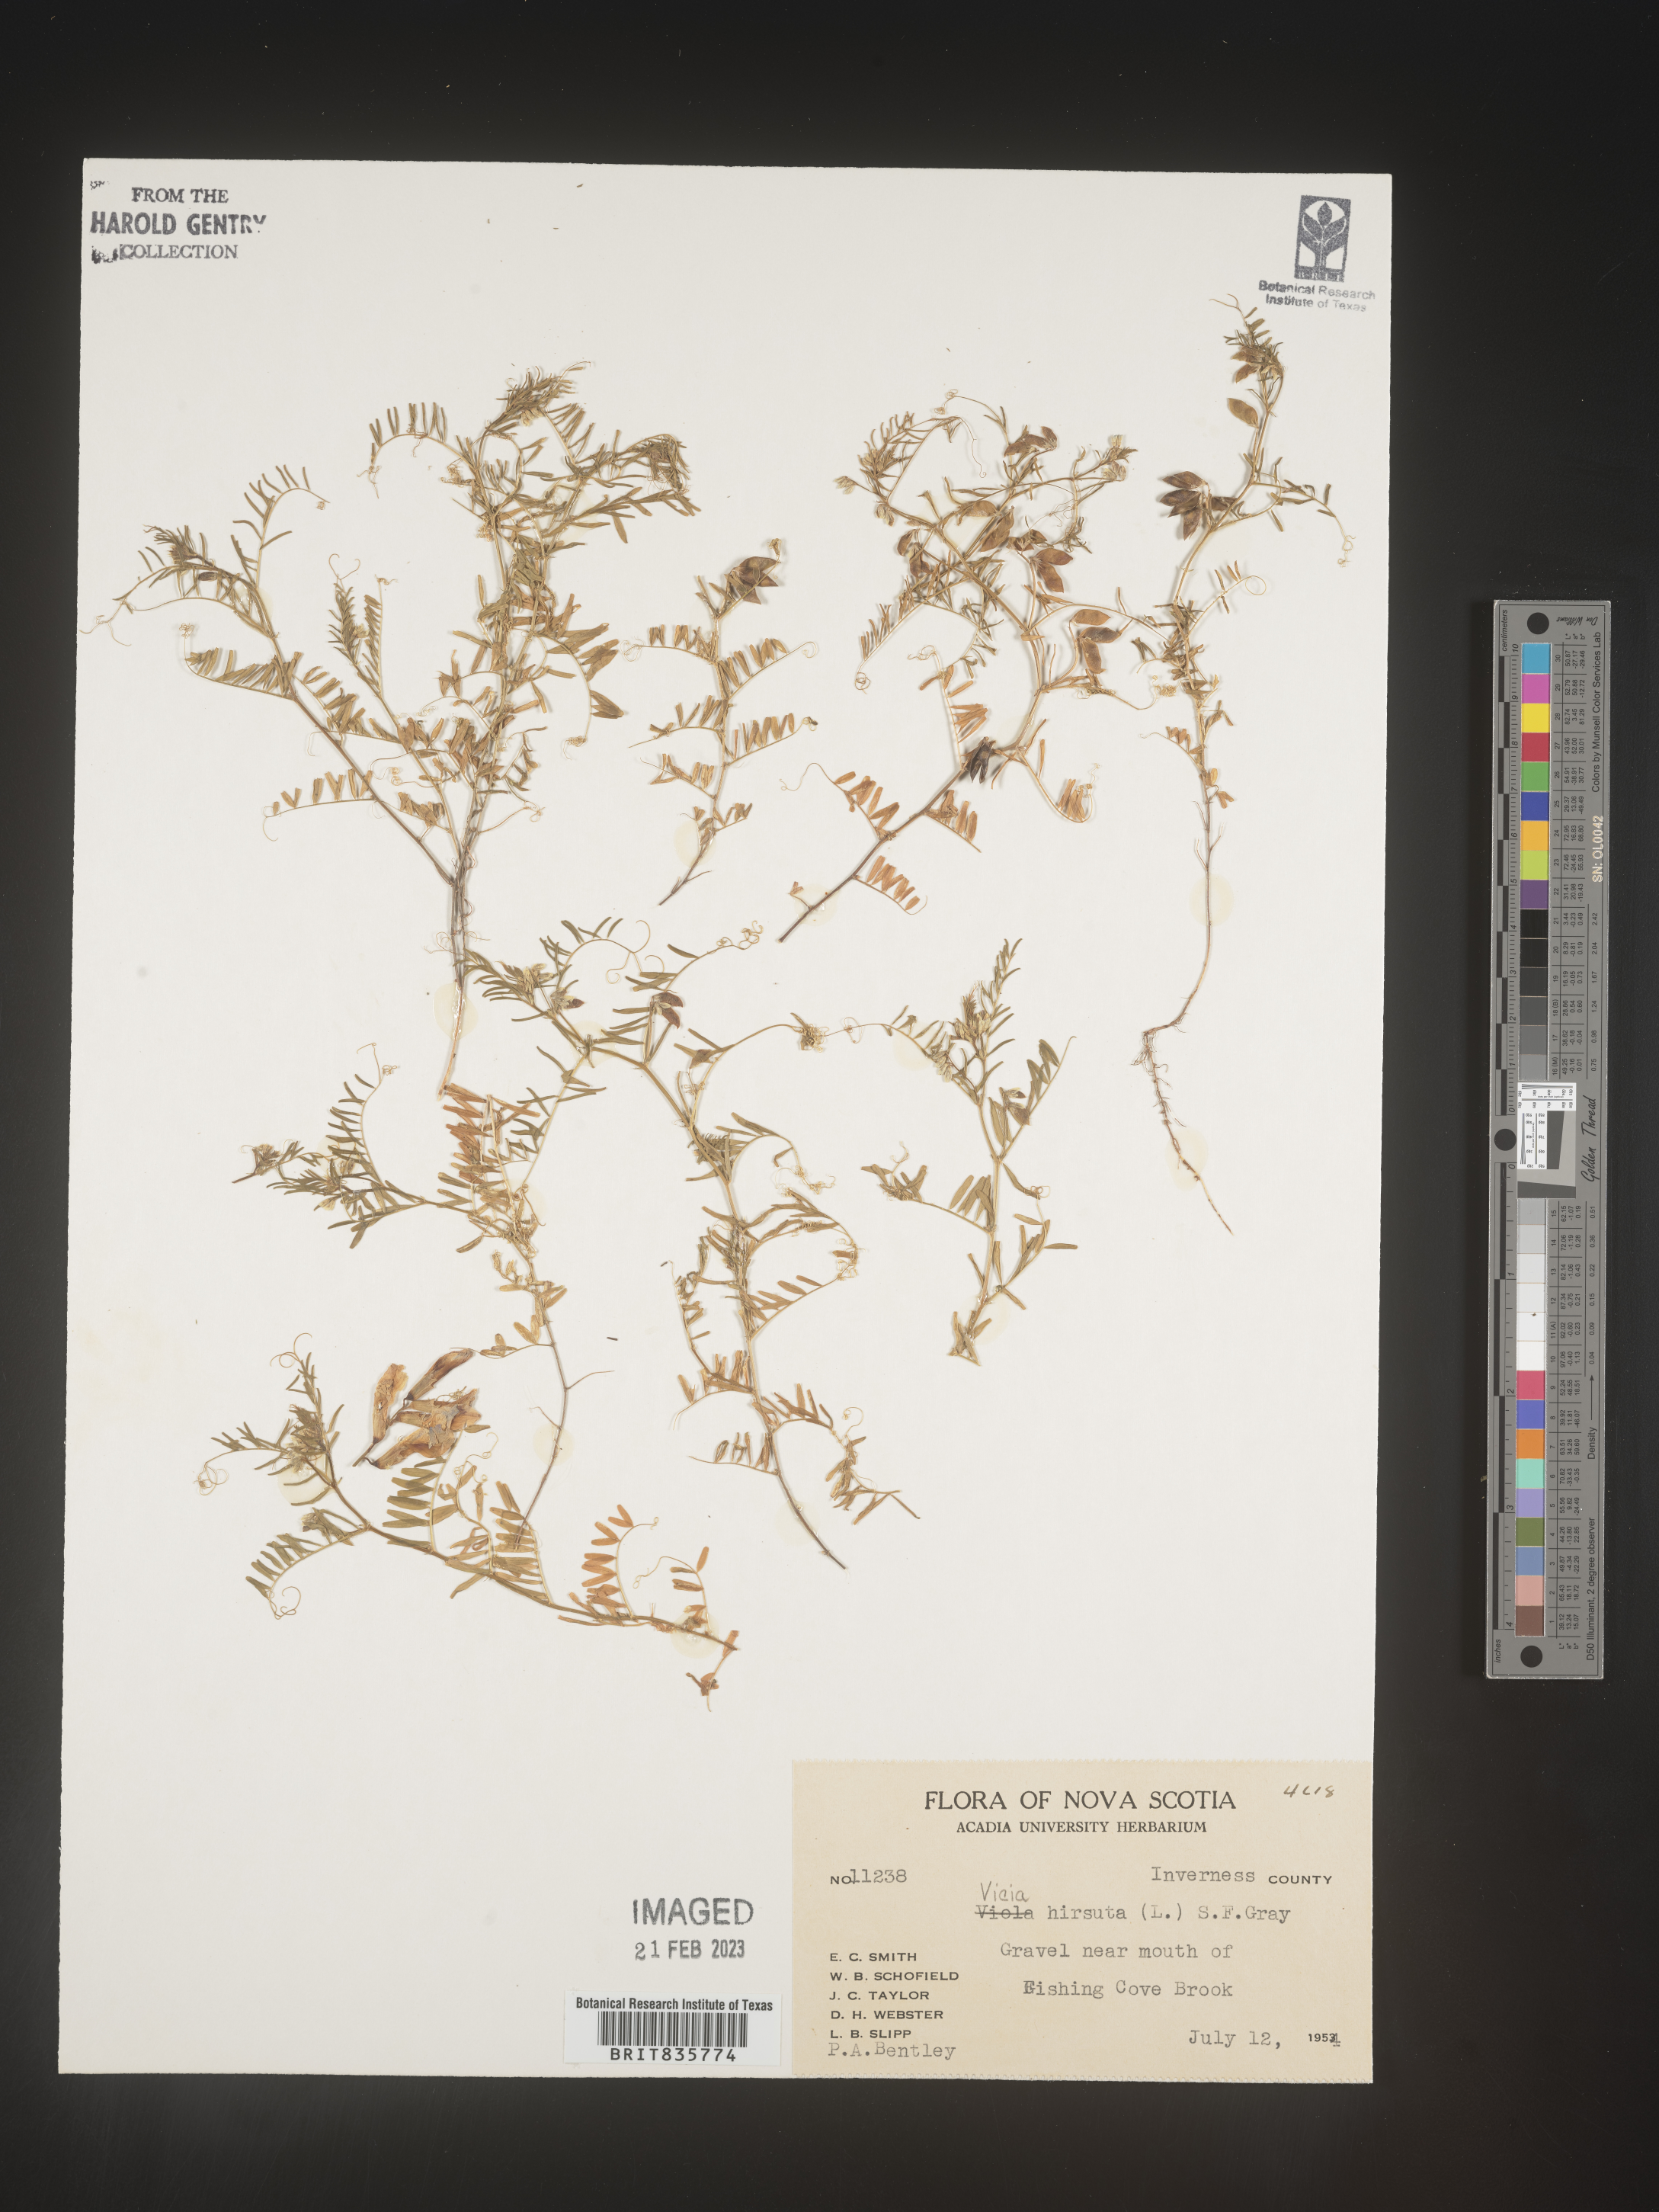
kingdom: Plantae
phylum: Tracheophyta
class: Magnoliopsida
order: Fabales
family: Fabaceae
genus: Vicia
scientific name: Vicia
